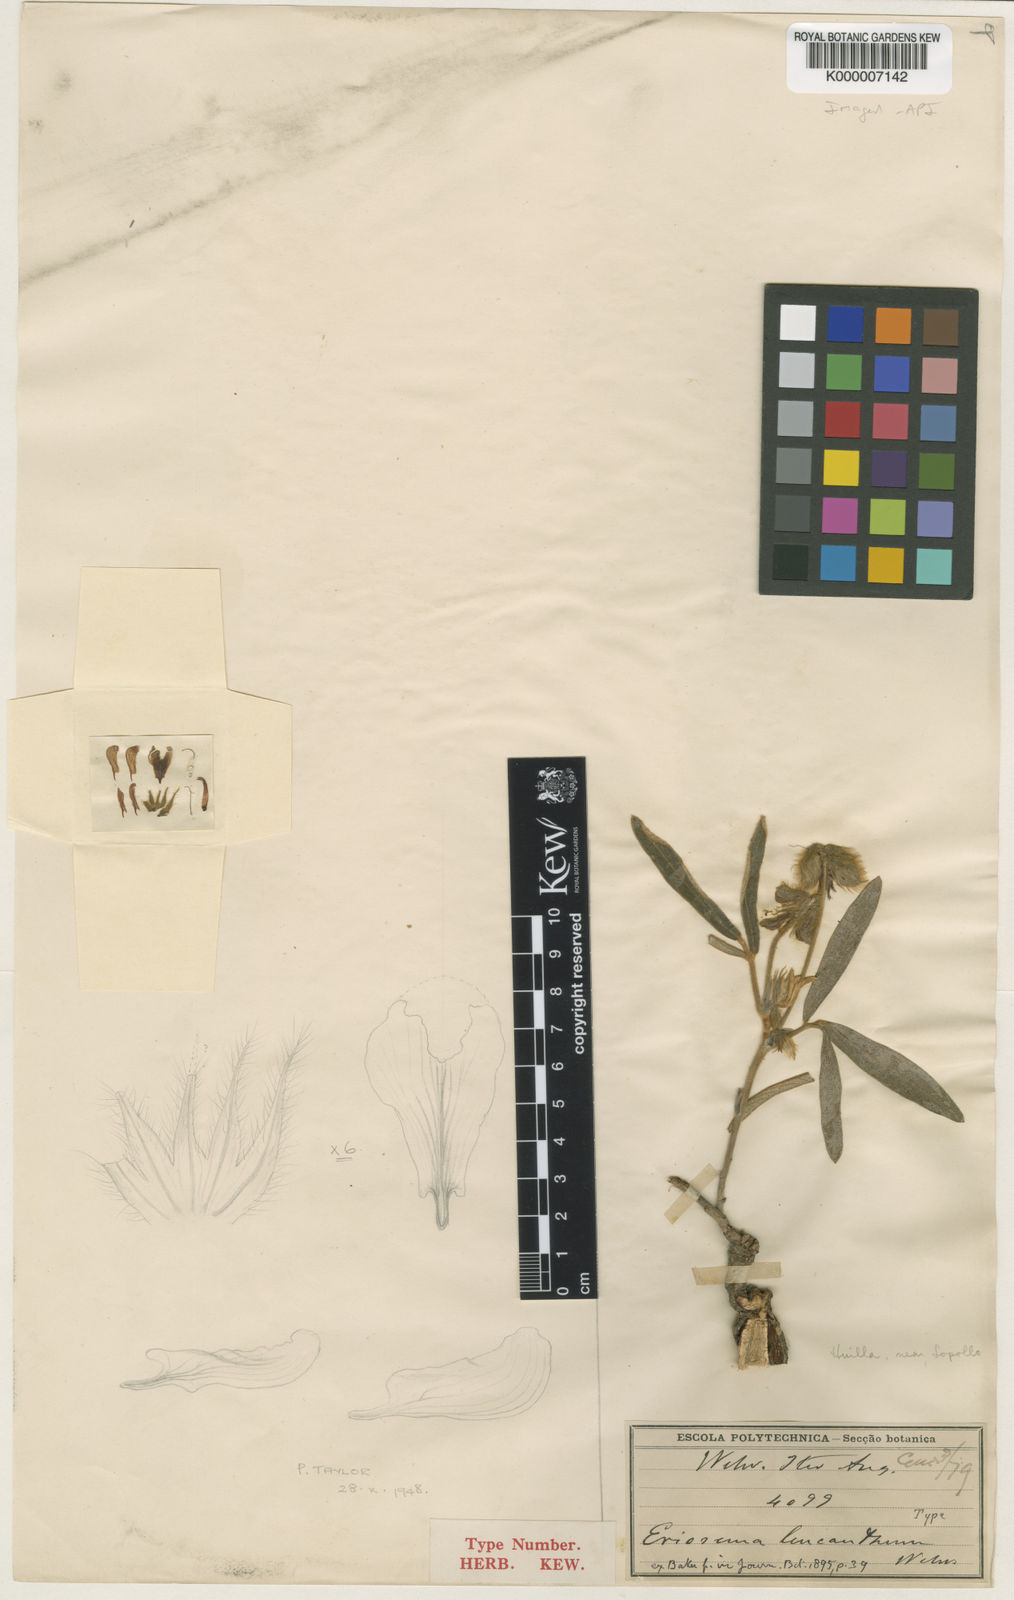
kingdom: Plantae
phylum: Tracheophyta
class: Magnoliopsida
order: Fabales
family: Fabaceae
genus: Eriosema
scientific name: Eriosema burkei
